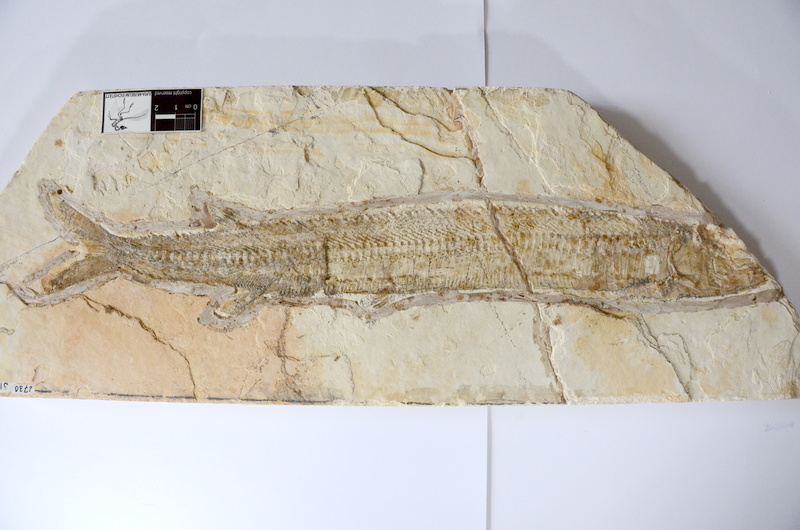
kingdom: Animalia
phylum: Chordata
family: Aspidorhynchidae
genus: Aspidorhynchus
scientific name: Aspidorhynchus acutirostris
